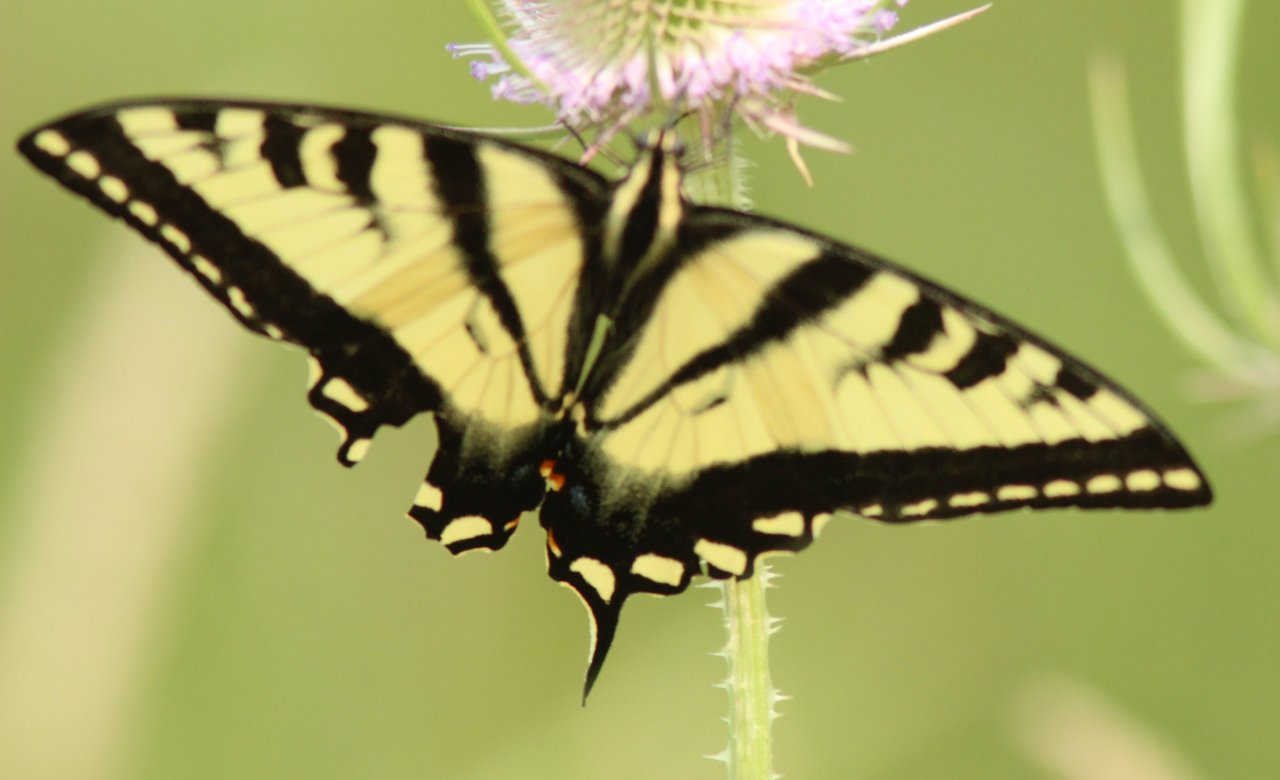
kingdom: Animalia
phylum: Arthropoda
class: Insecta
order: Lepidoptera
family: Papilionidae
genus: Pterourus
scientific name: Pterourus rutulus
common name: Western Tiger Swallowtail
